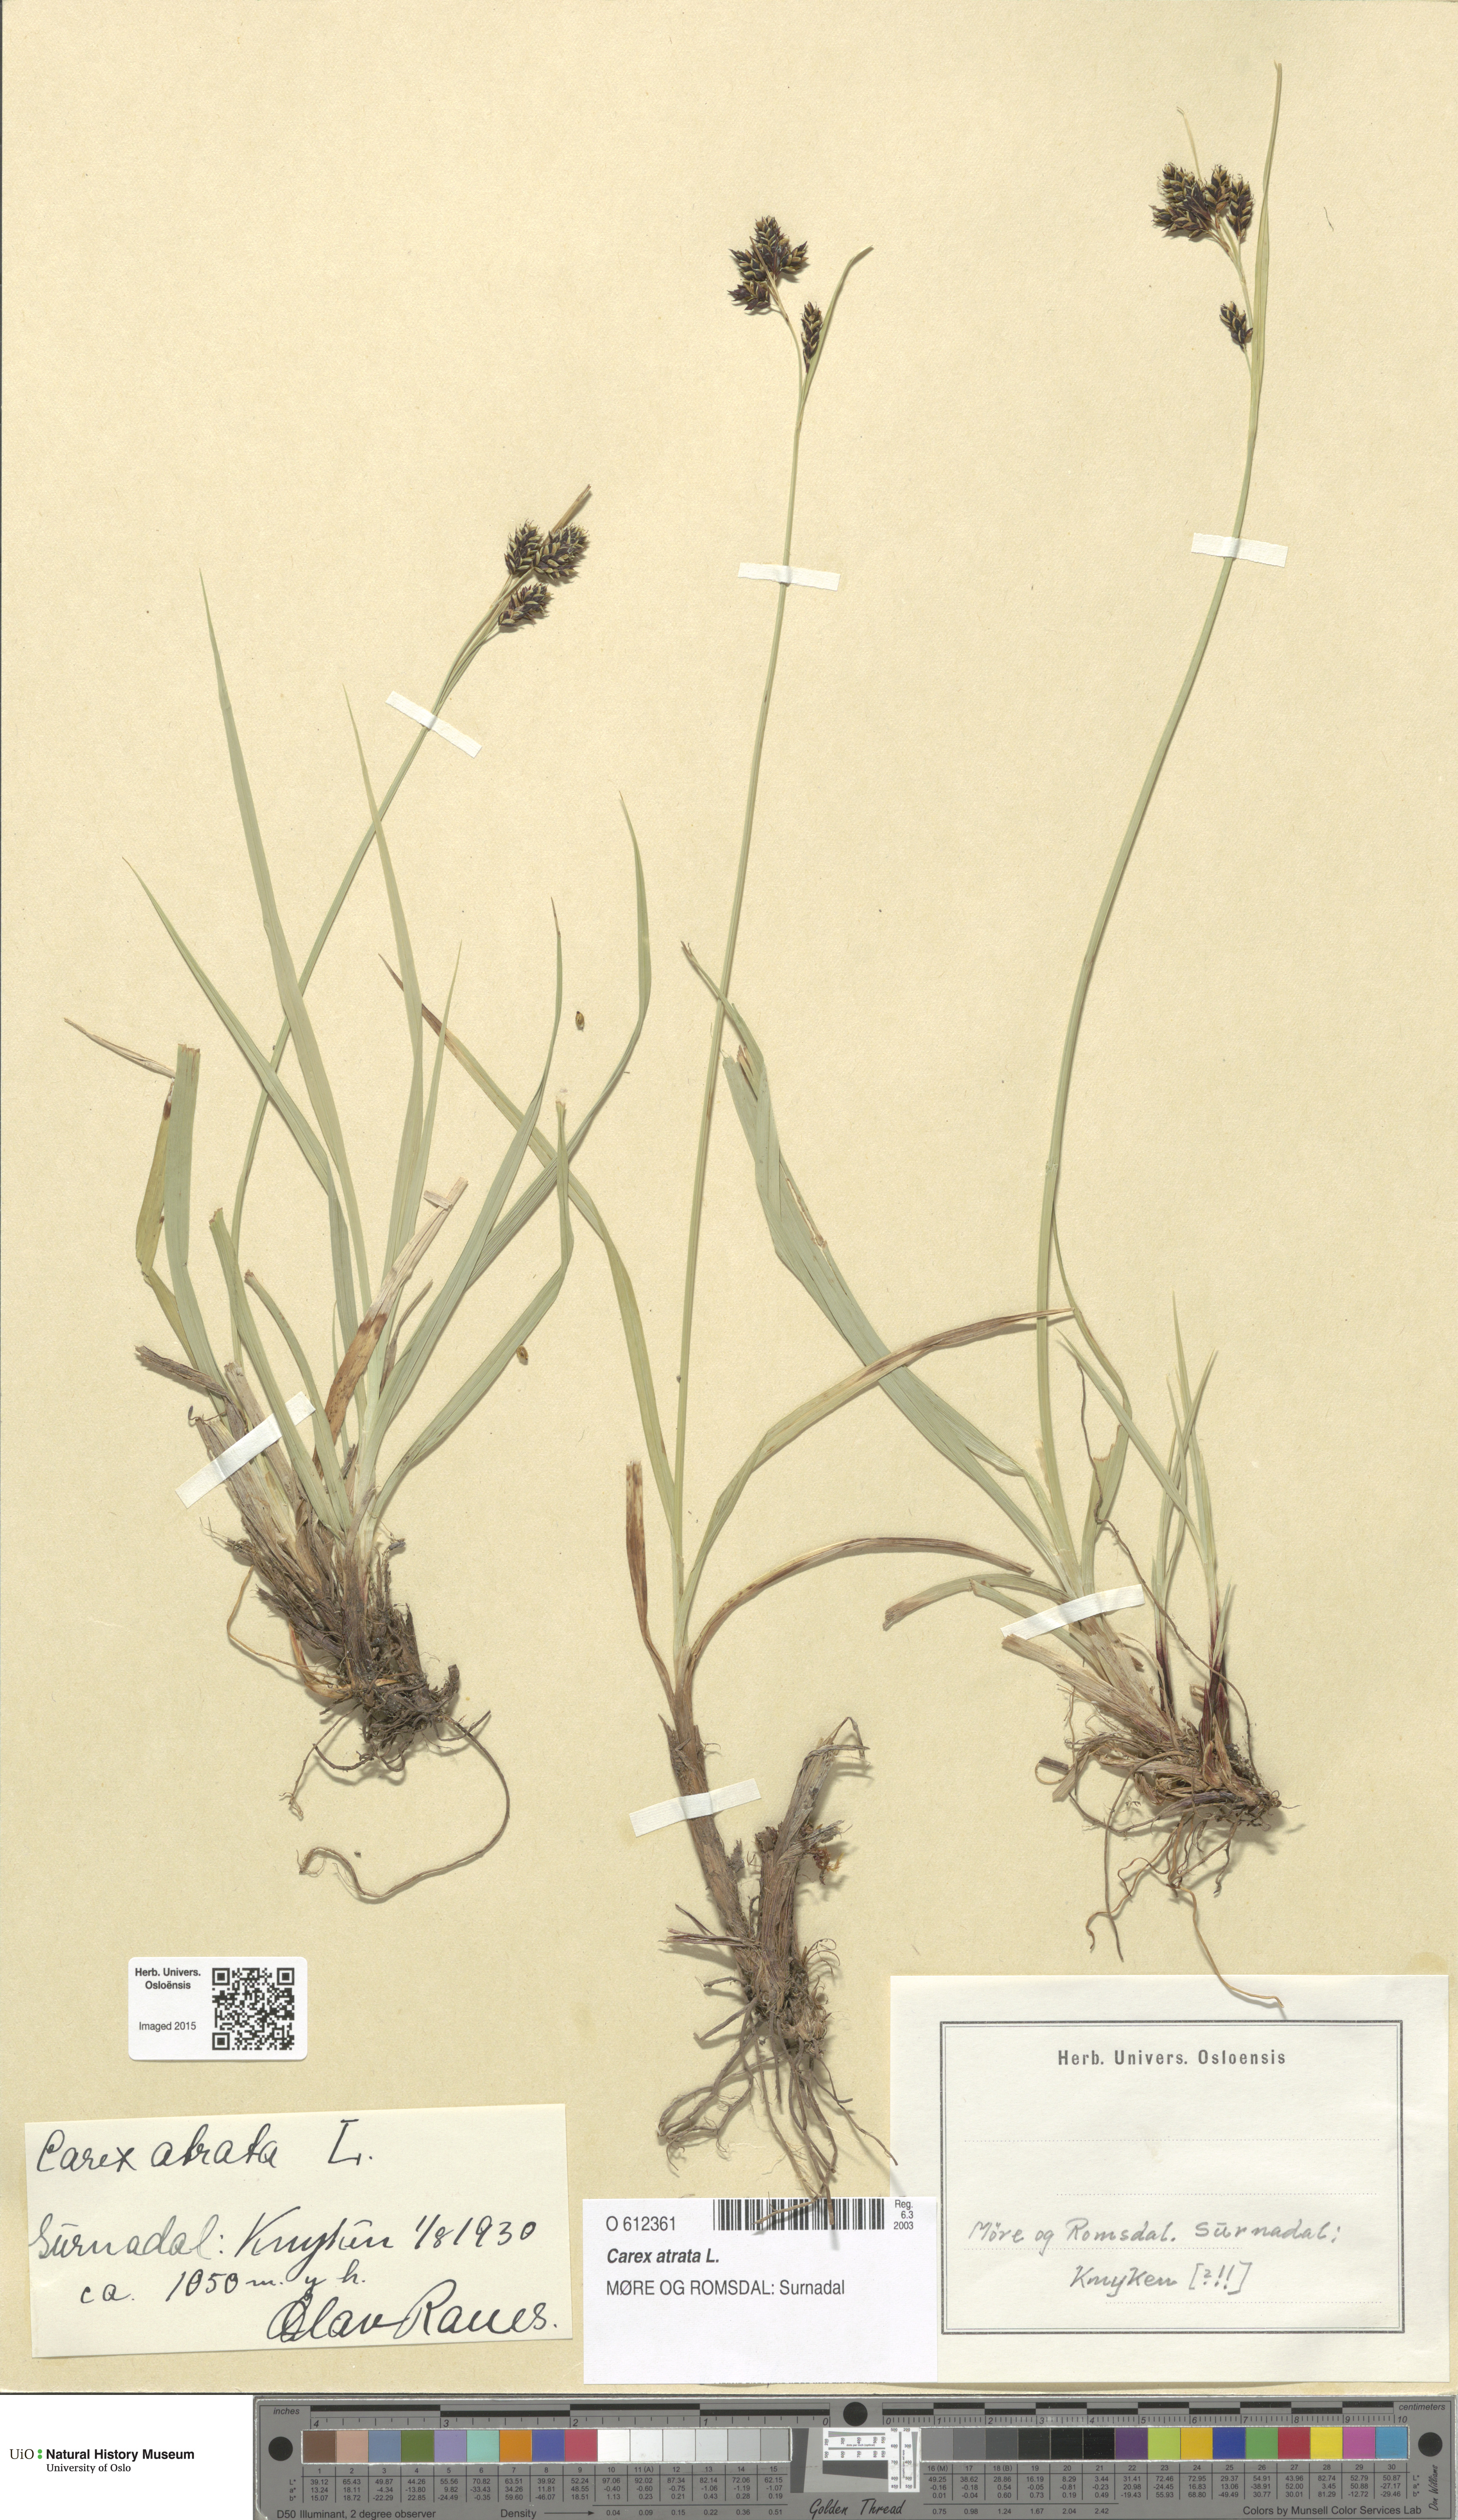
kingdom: Plantae
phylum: Tracheophyta
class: Liliopsida
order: Poales
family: Cyperaceae
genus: Carex
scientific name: Carex atrata
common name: Black alpine sedge
